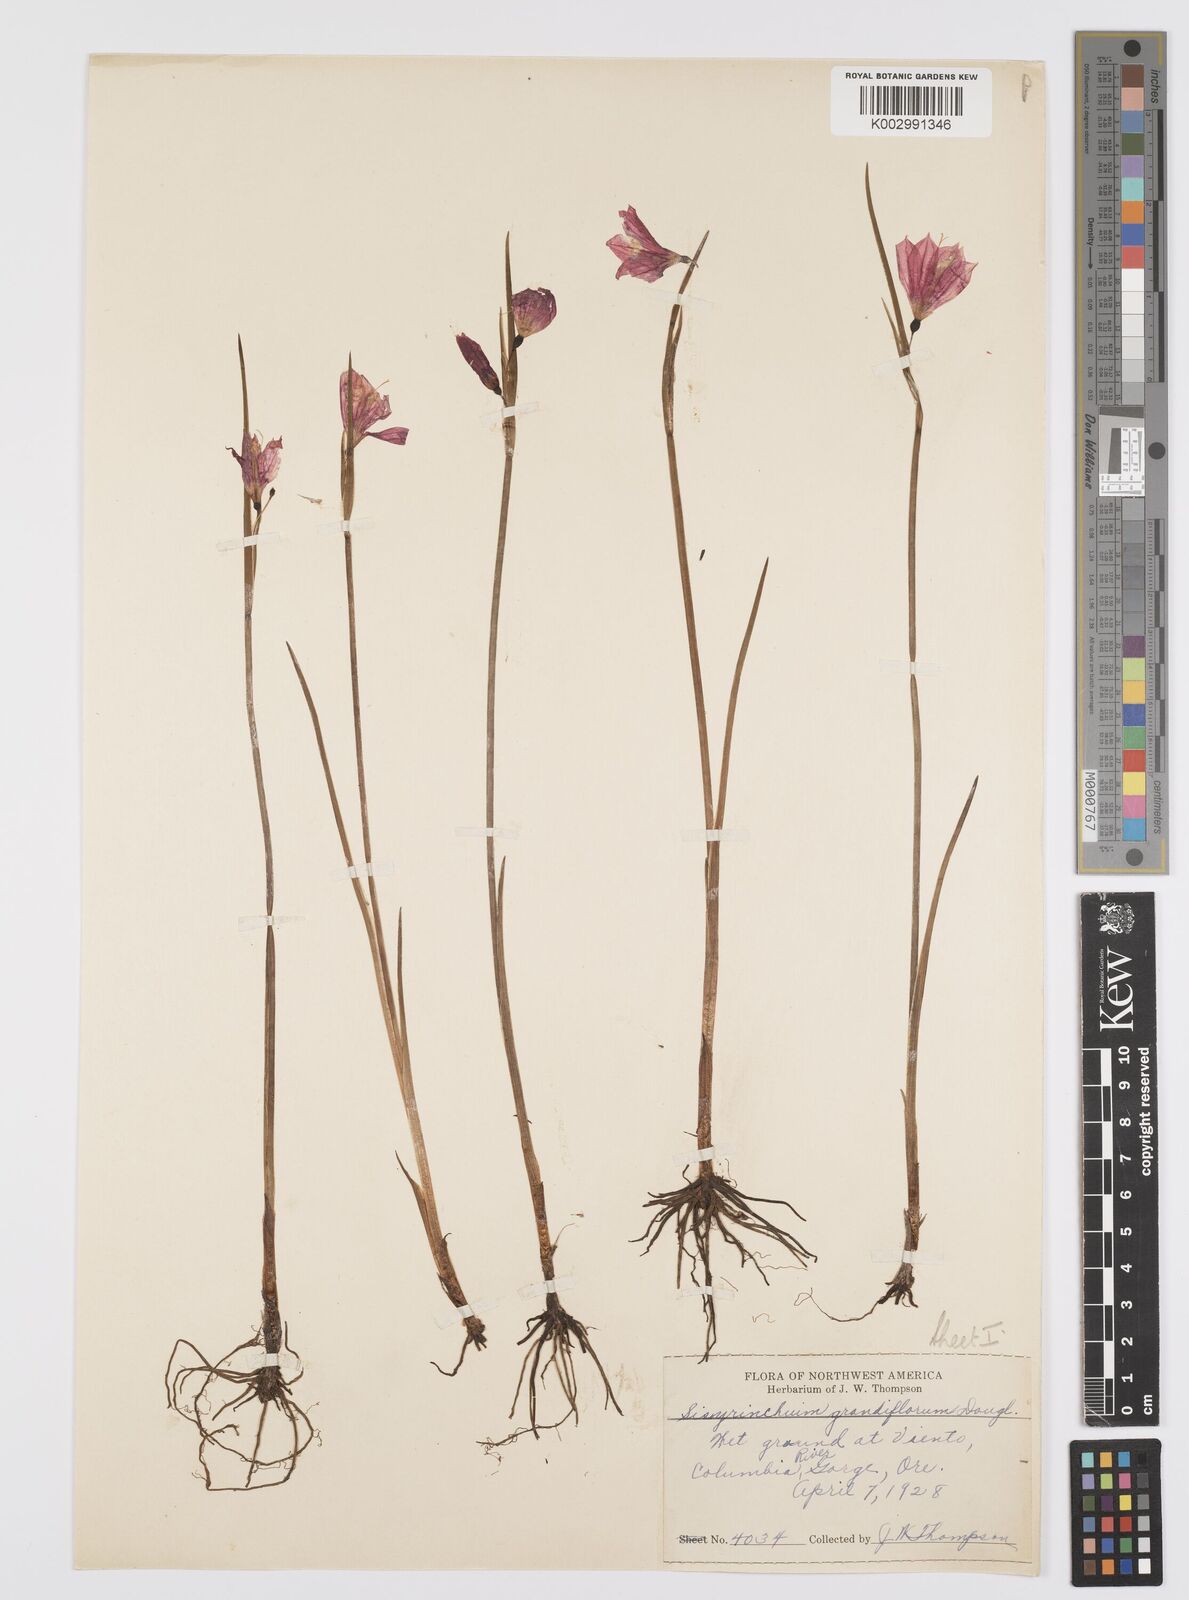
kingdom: Plantae
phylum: Tracheophyta
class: Liliopsida
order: Asparagales
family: Iridaceae
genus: Olsynium
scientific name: Olsynium douglasii
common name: Douglas' grasswidow
